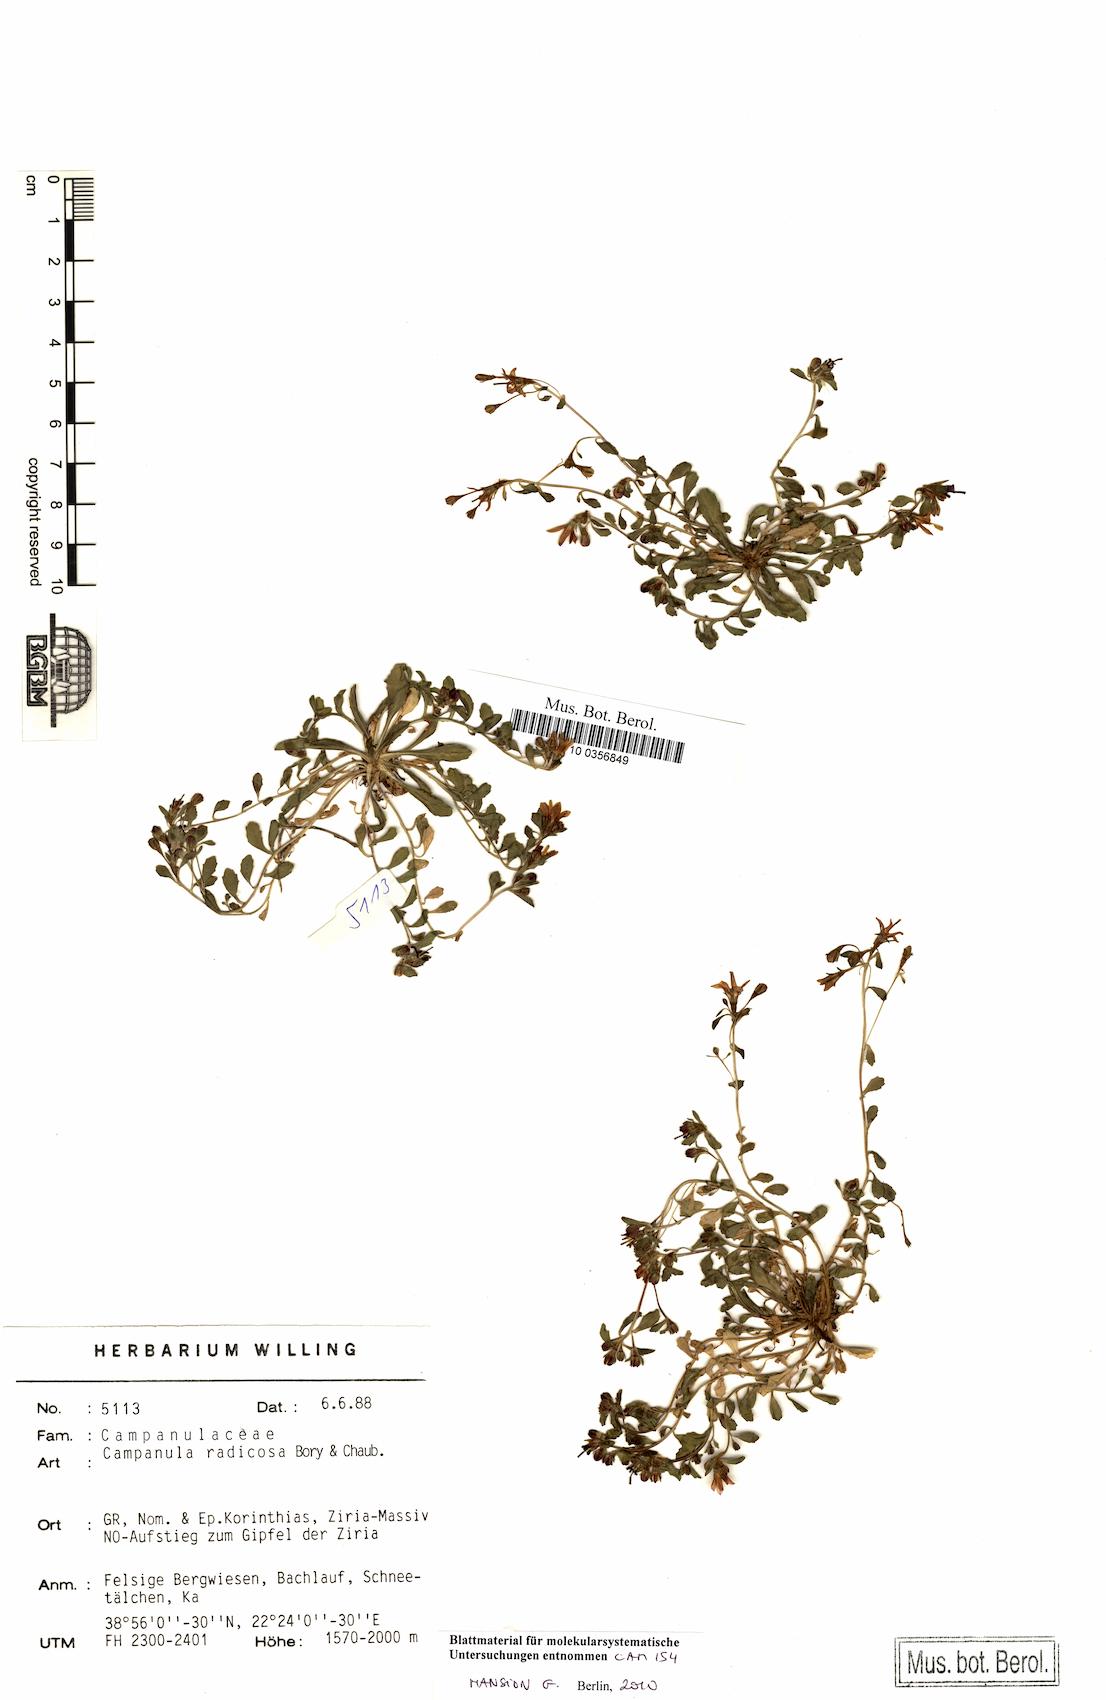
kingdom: Plantae
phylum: Tracheophyta
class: Magnoliopsida
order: Asterales
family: Campanulaceae
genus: Campanula
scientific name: Campanula radicosa
